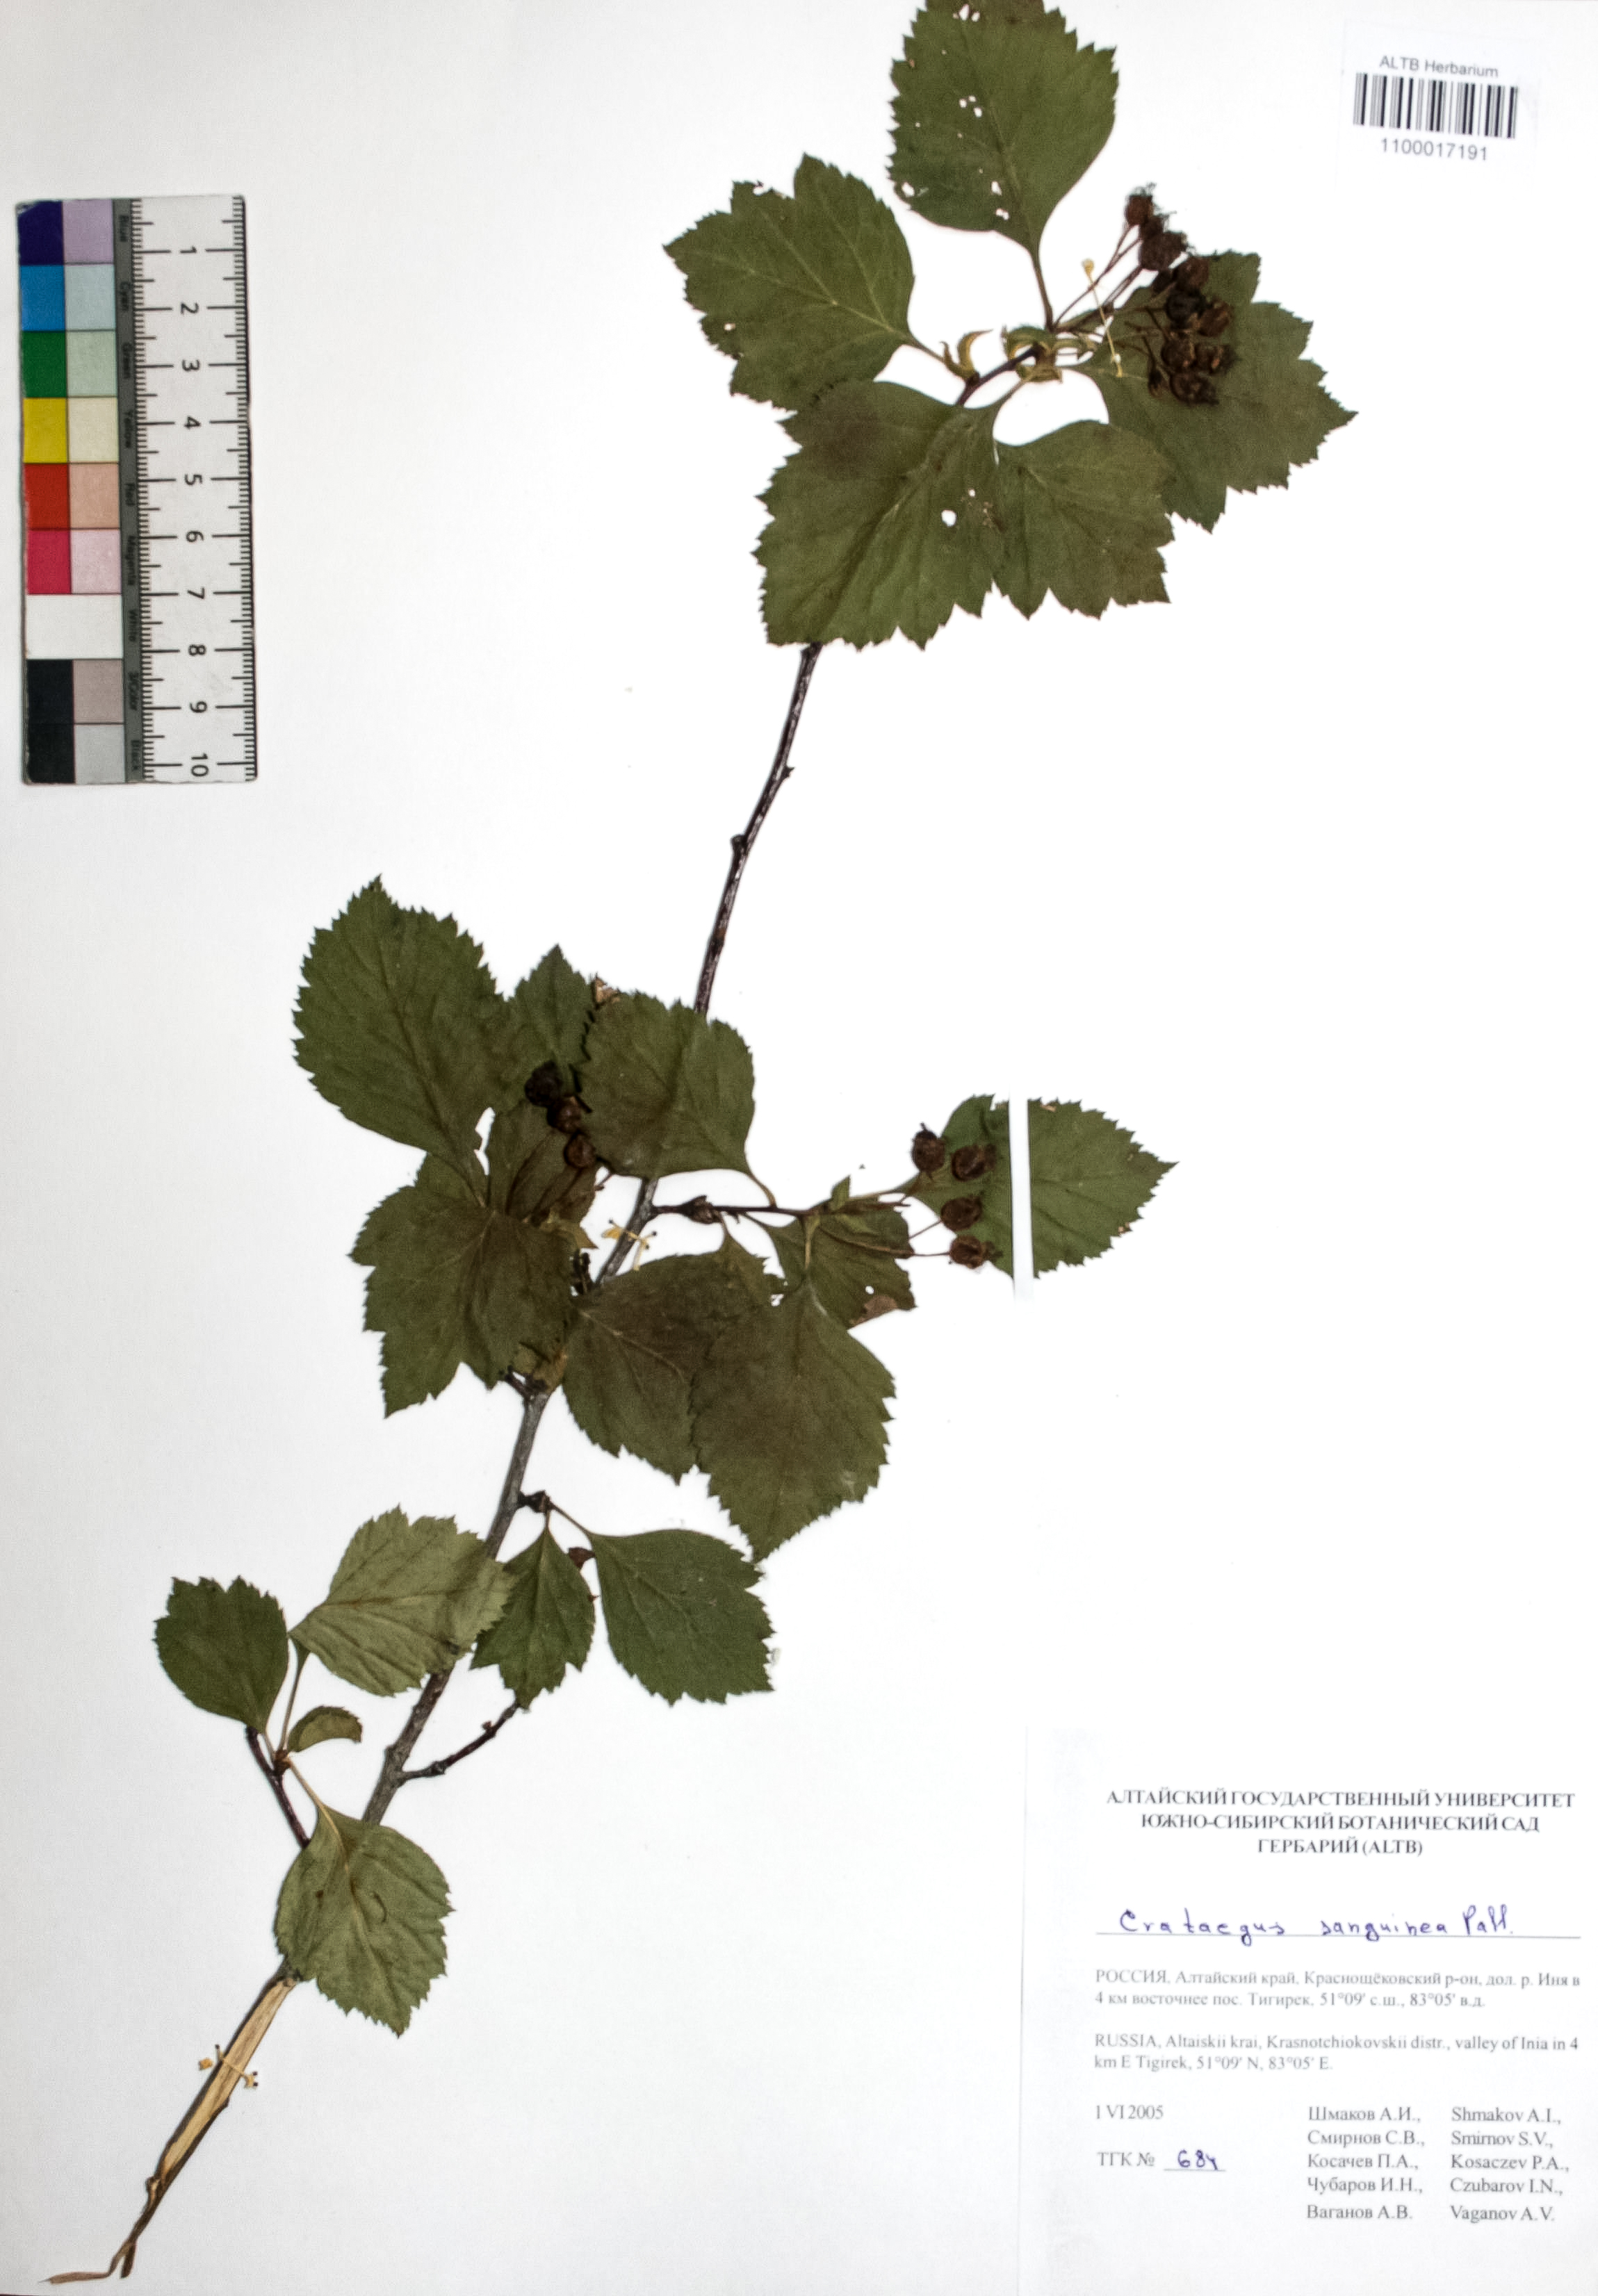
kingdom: Plantae
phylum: Tracheophyta
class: Magnoliopsida
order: Rosales
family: Rosaceae
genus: Crataegus
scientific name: Crataegus sanguinea
